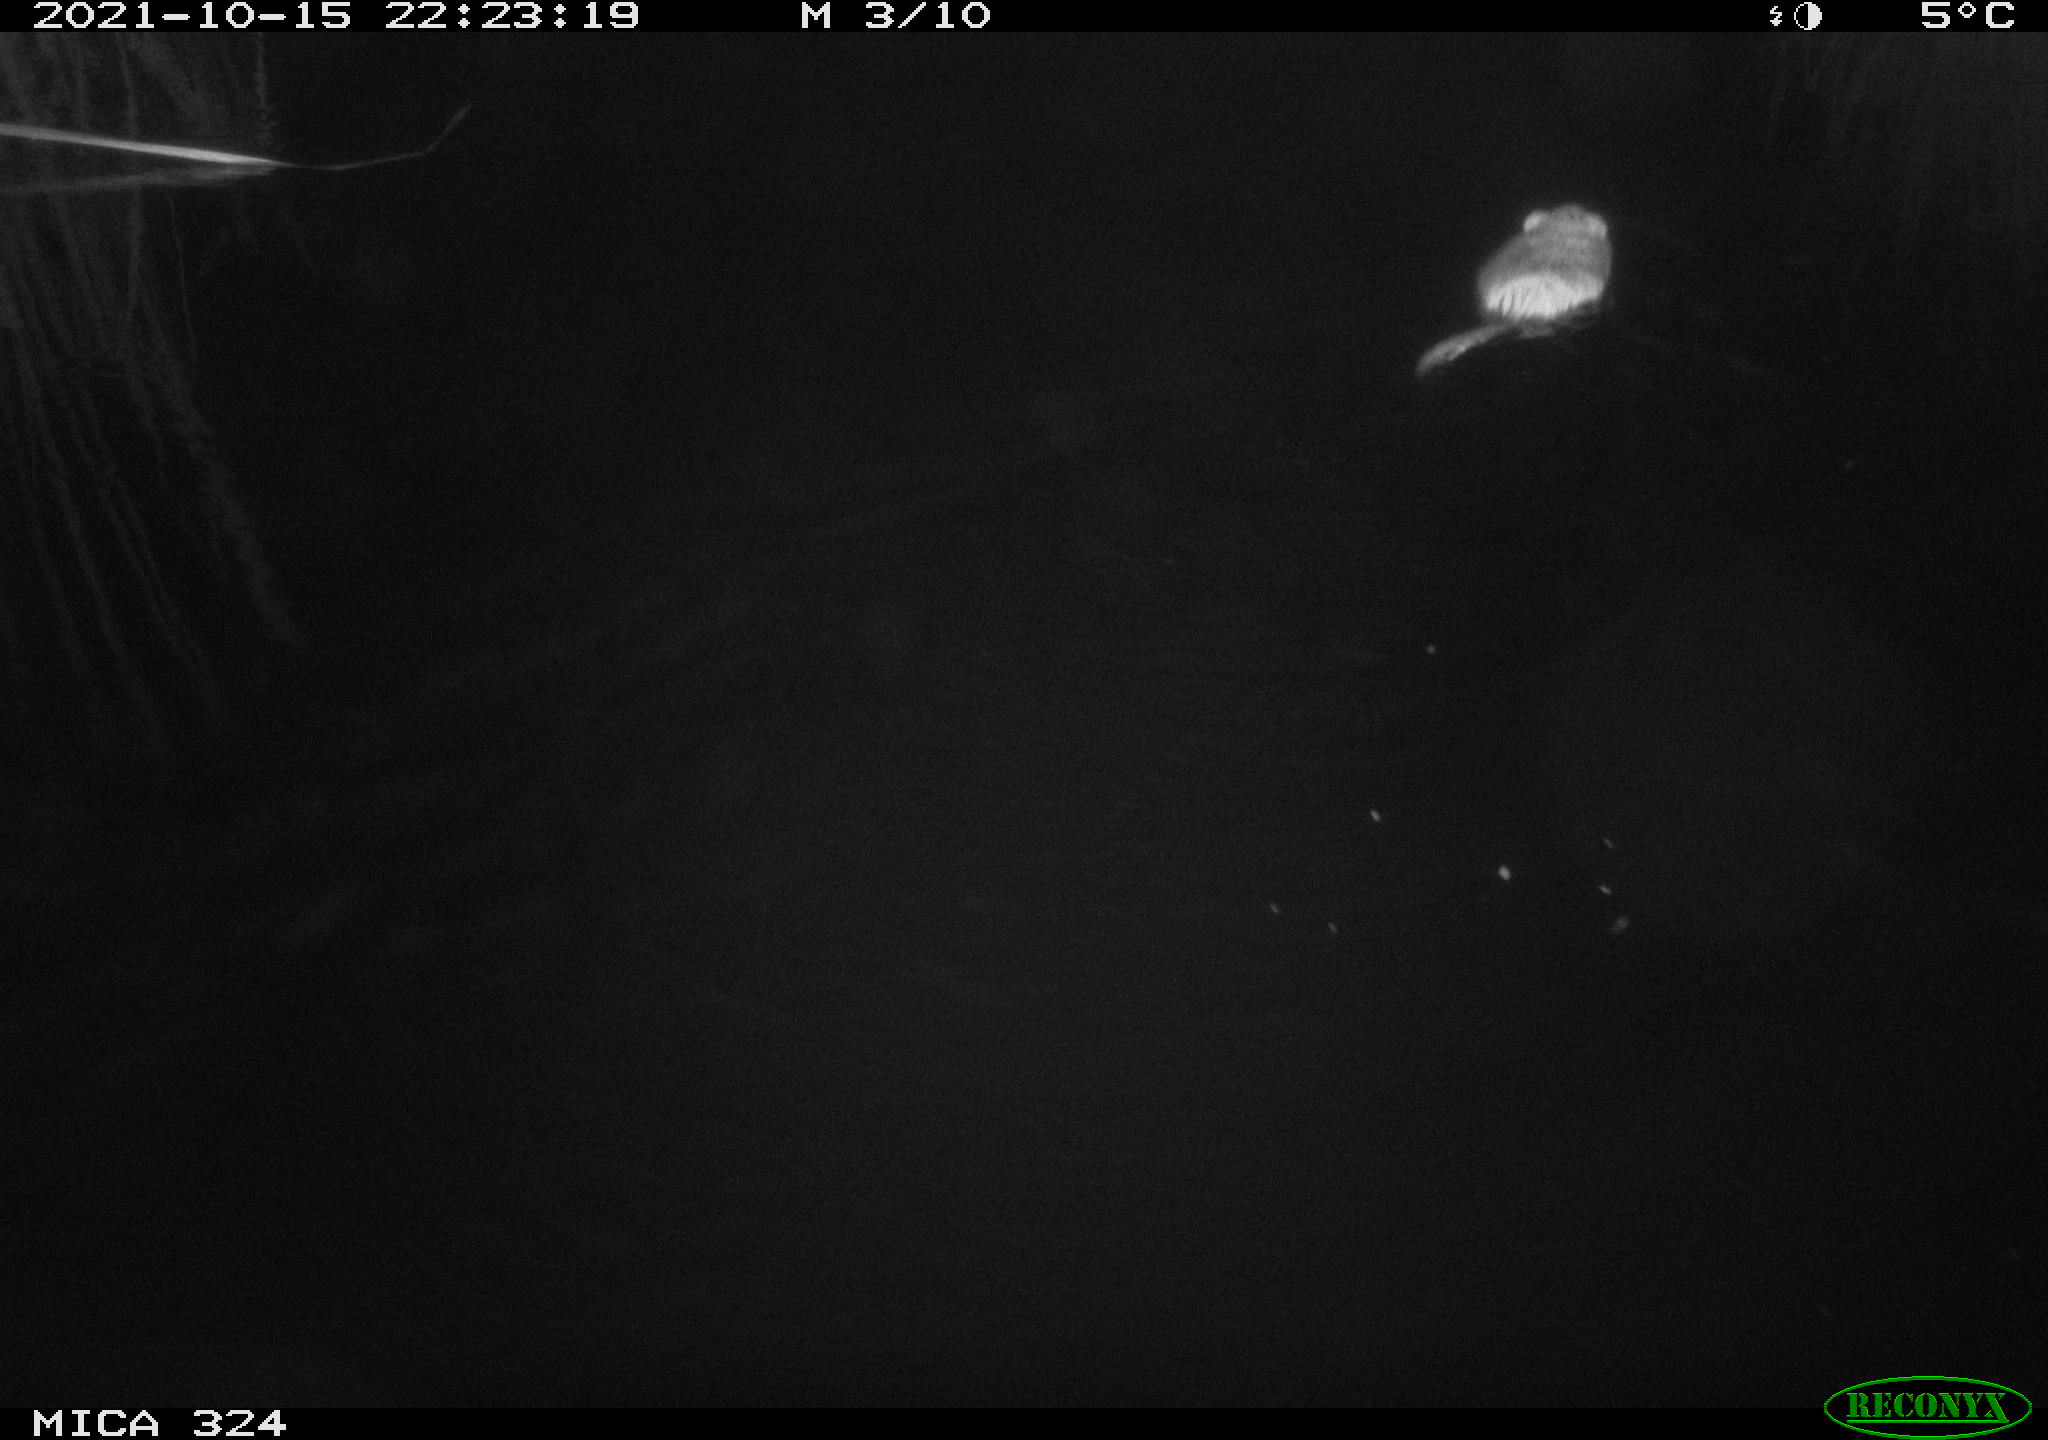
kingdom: Animalia
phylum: Chordata
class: Mammalia
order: Rodentia
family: Cricetidae
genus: Ondatra
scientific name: Ondatra zibethicus
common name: Muskrat
